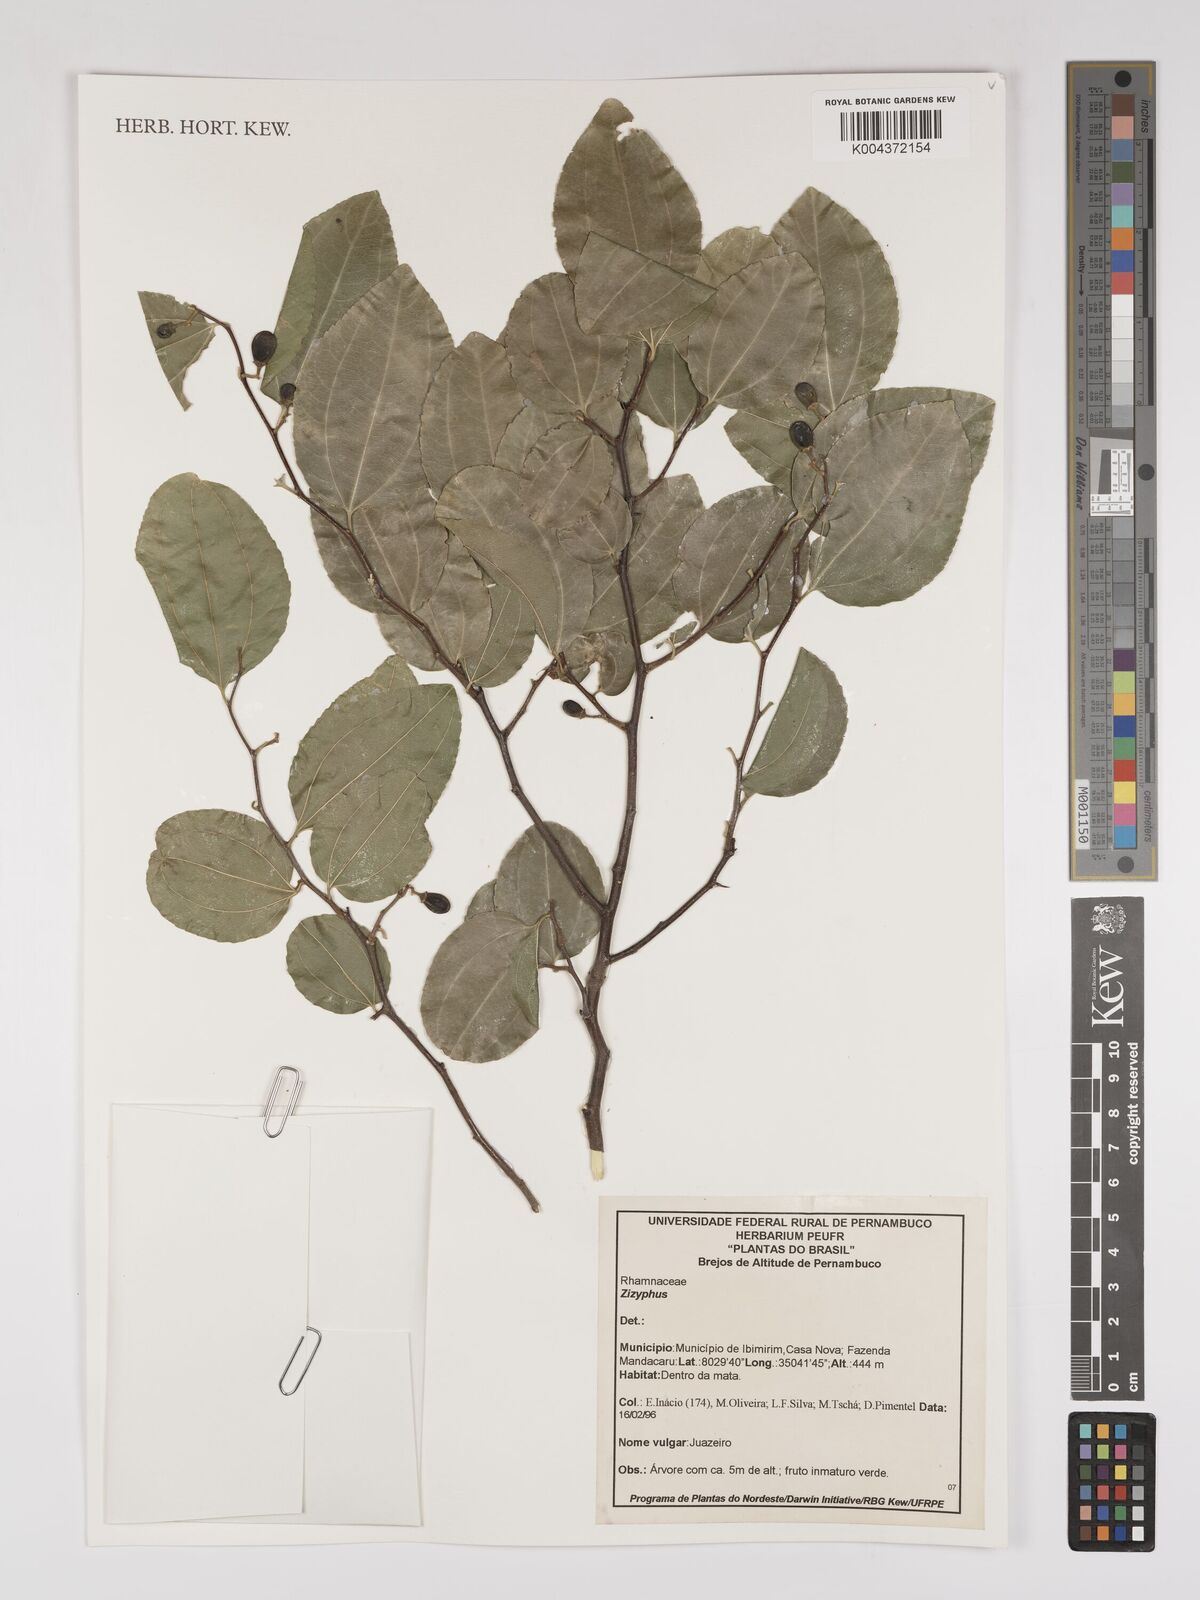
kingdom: Plantae
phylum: Tracheophyta
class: Magnoliopsida
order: Rosales
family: Rhamnaceae
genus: Ziziphus
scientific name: Ziziphus
